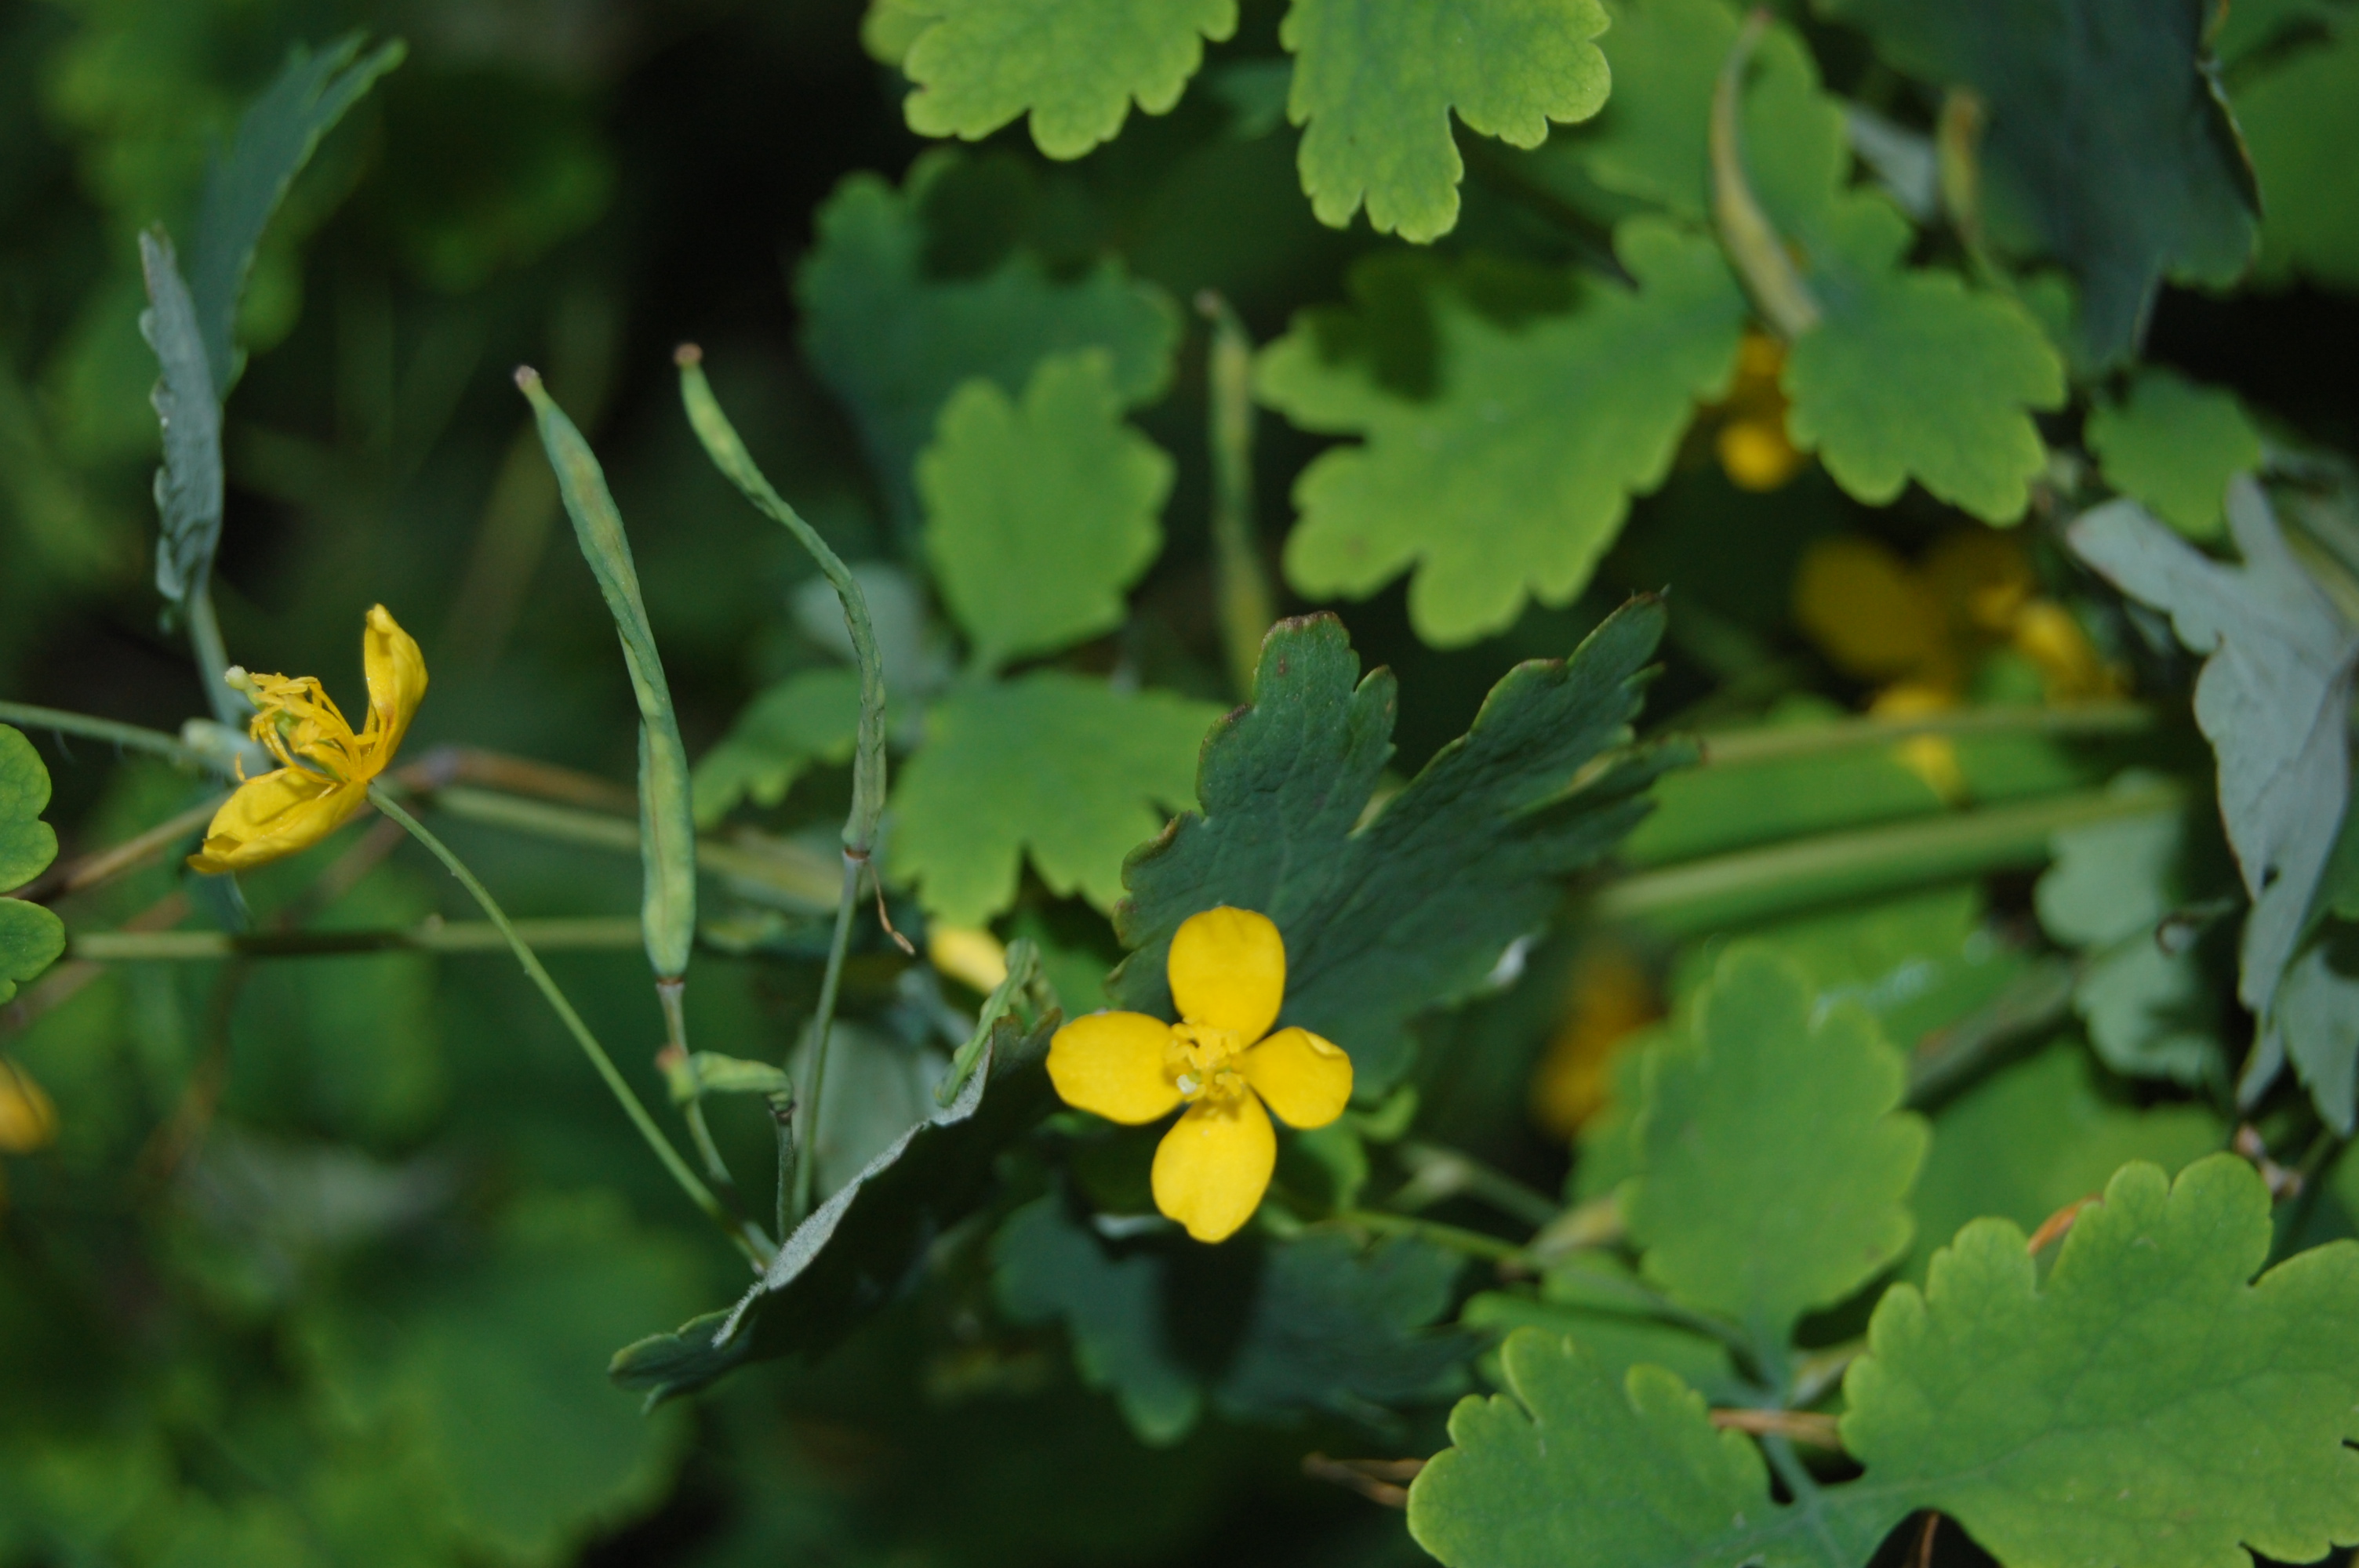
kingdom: Plantae
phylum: Tracheophyta
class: Magnoliopsida
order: Ranunculales
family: Papaveraceae
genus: Chelidonium
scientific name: Chelidonium majus
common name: Greater celandine
